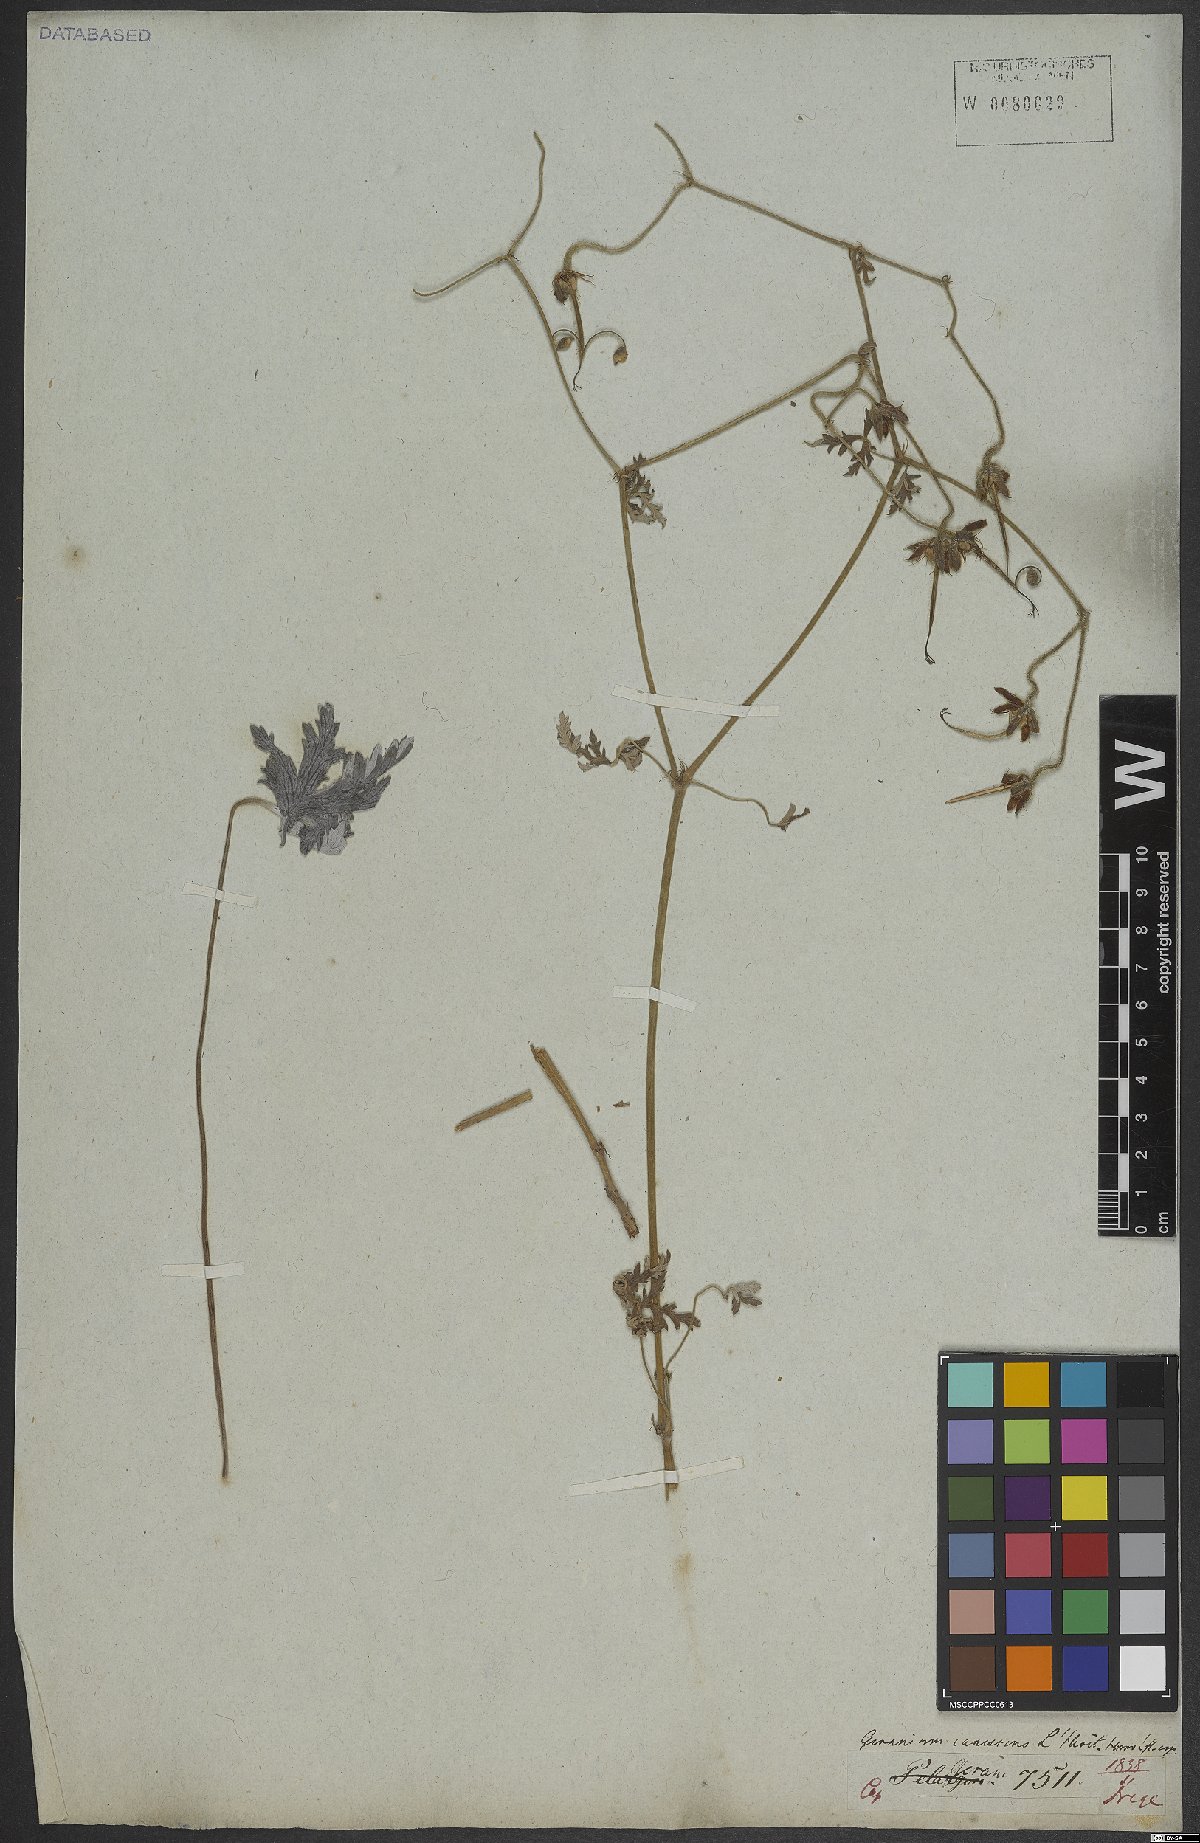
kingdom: Plantae
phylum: Tracheophyta
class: Magnoliopsida
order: Geraniales
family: Geraniaceae
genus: Geranium
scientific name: Geranium canescens
